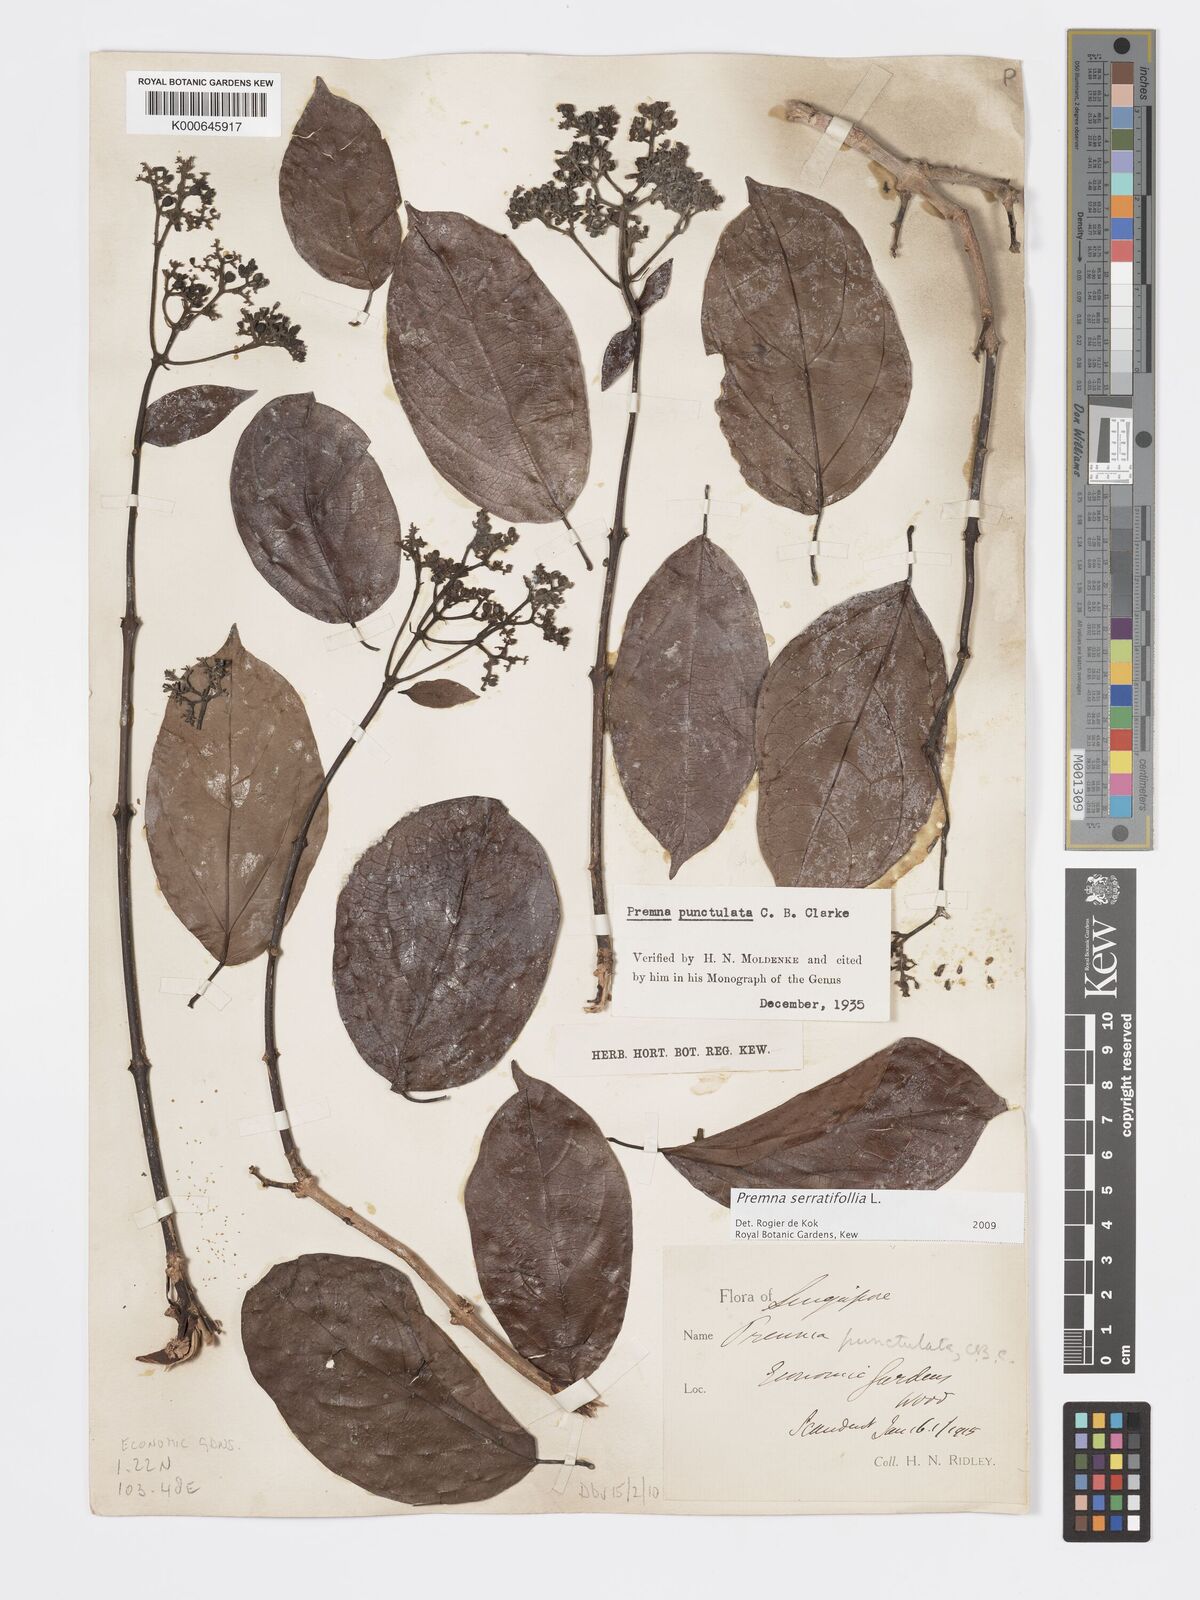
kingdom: Plantae
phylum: Tracheophyta
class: Magnoliopsida
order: Lamiales
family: Lamiaceae
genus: Premna
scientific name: Premna serratifolia
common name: Bastard guelder
